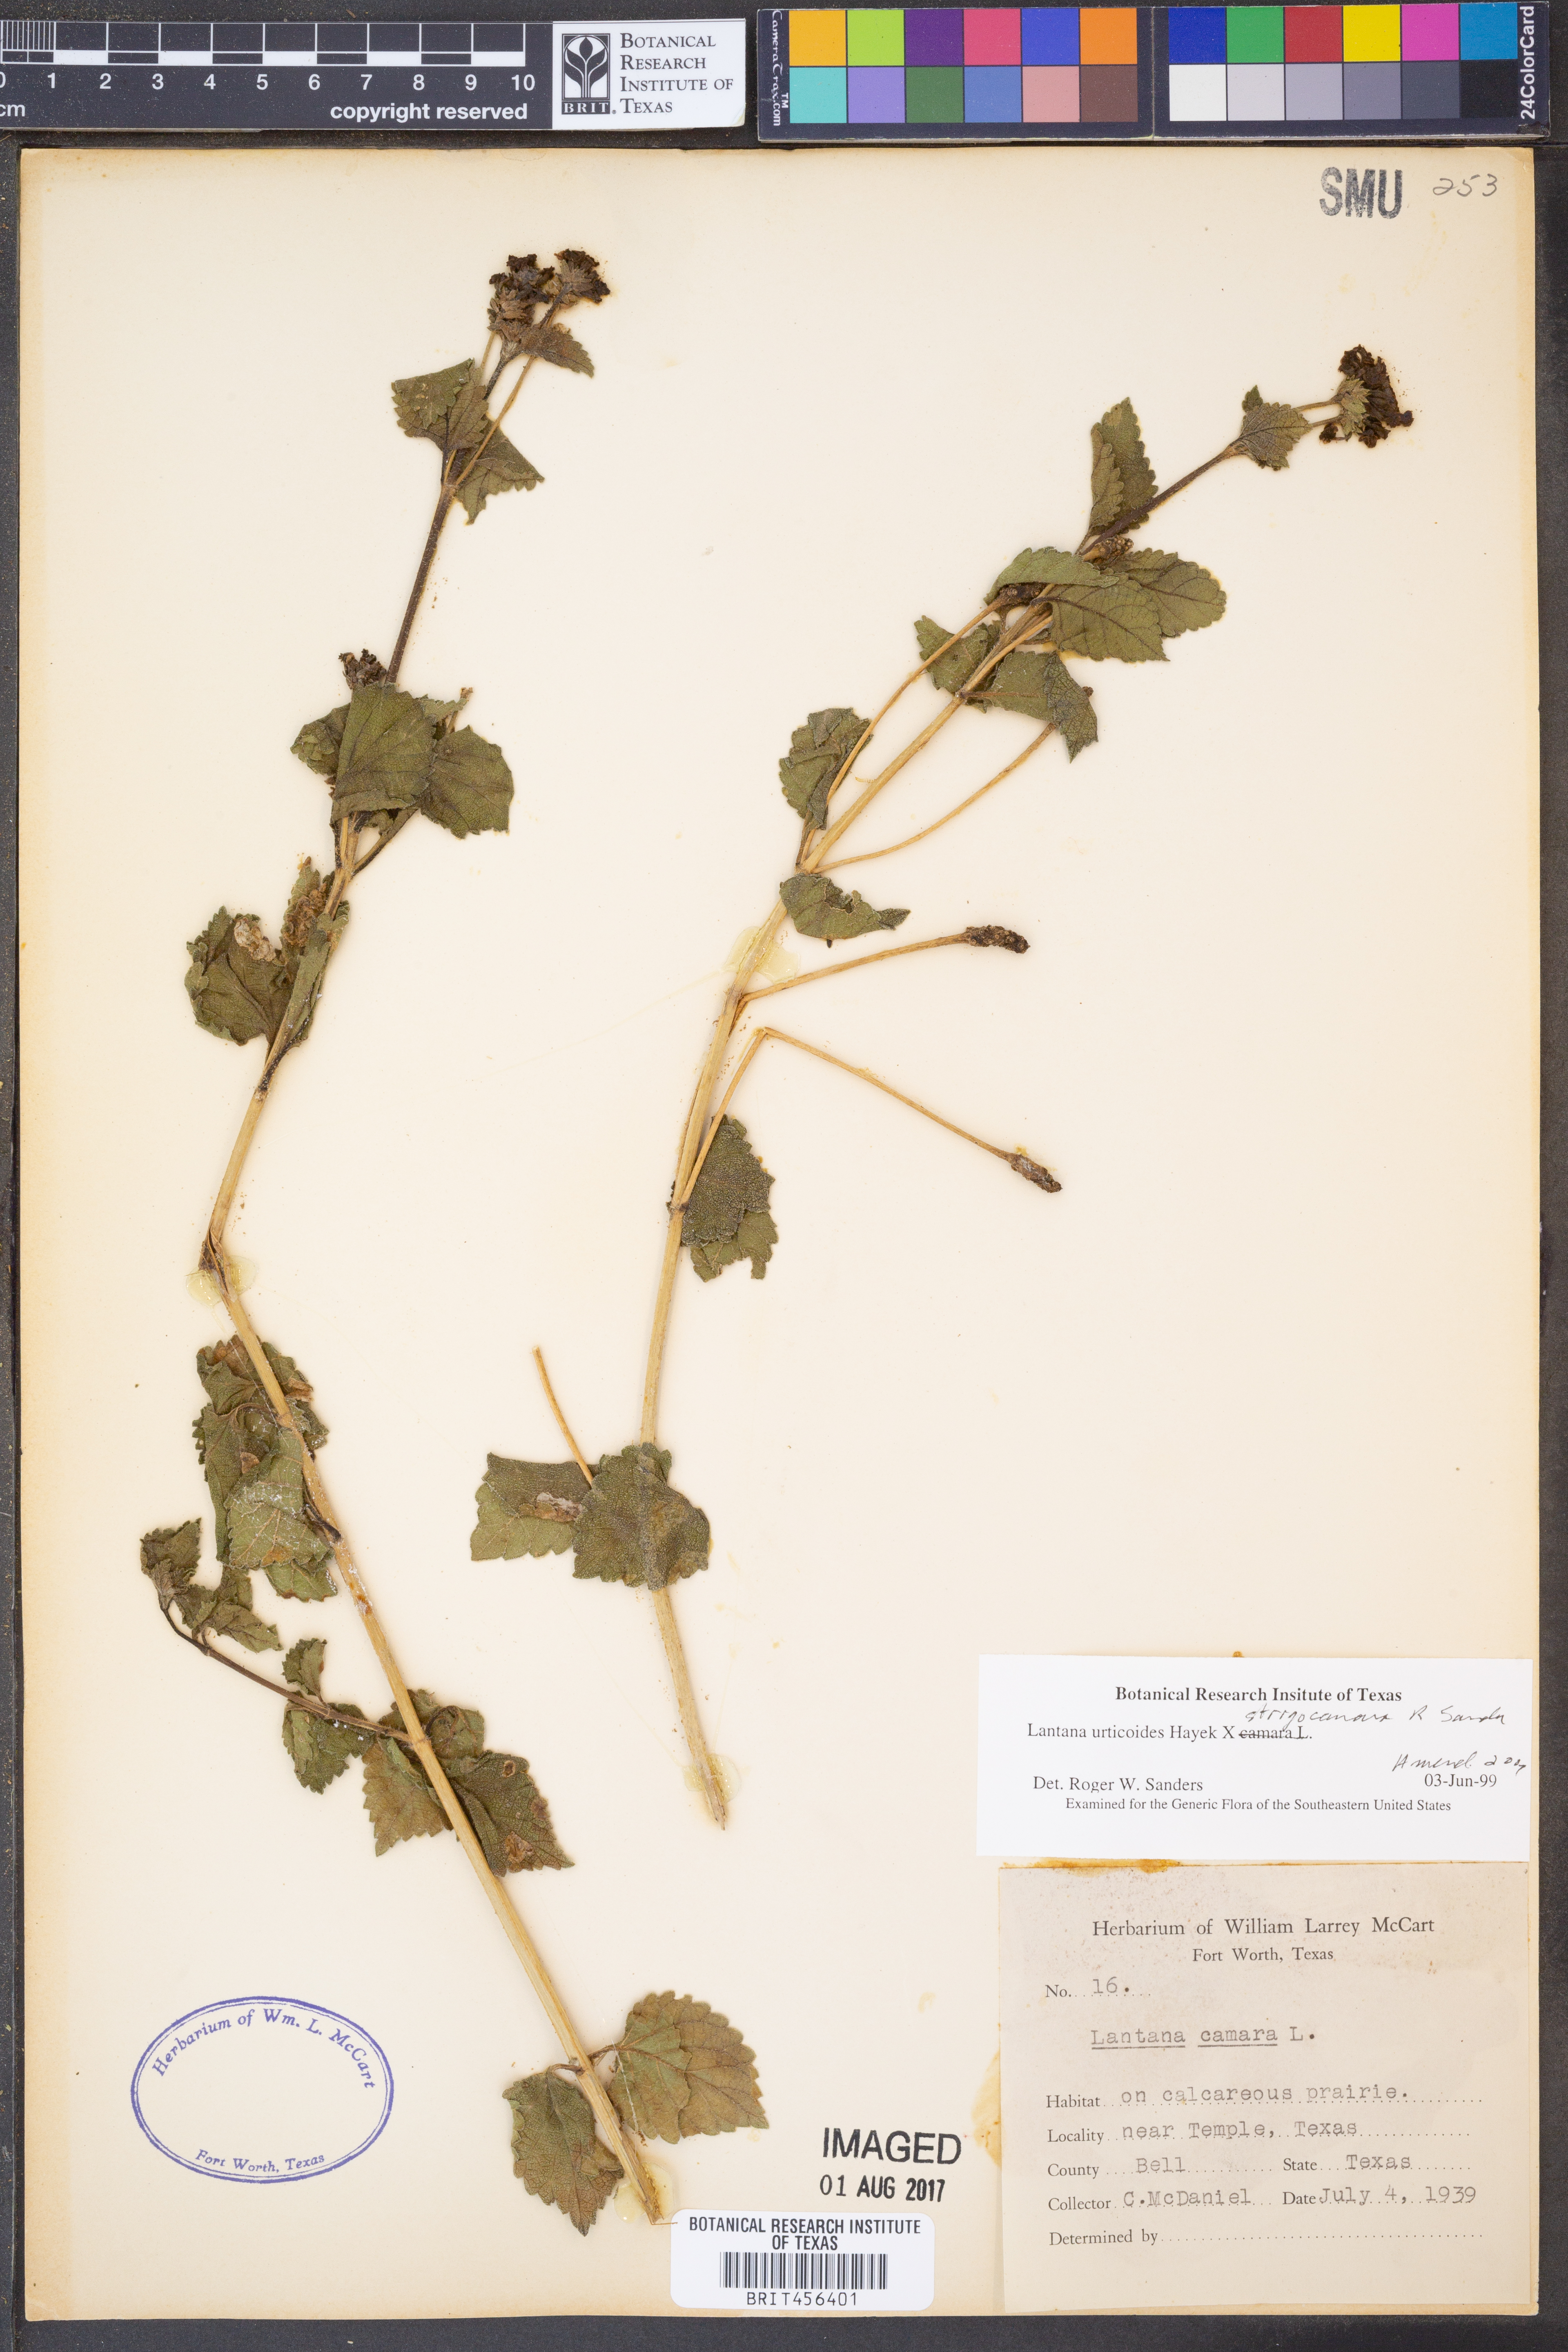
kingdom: Plantae
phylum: Tracheophyta
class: Magnoliopsida
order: Lamiales
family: Verbenaceae
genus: Lantana
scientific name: Lantana urticoides
